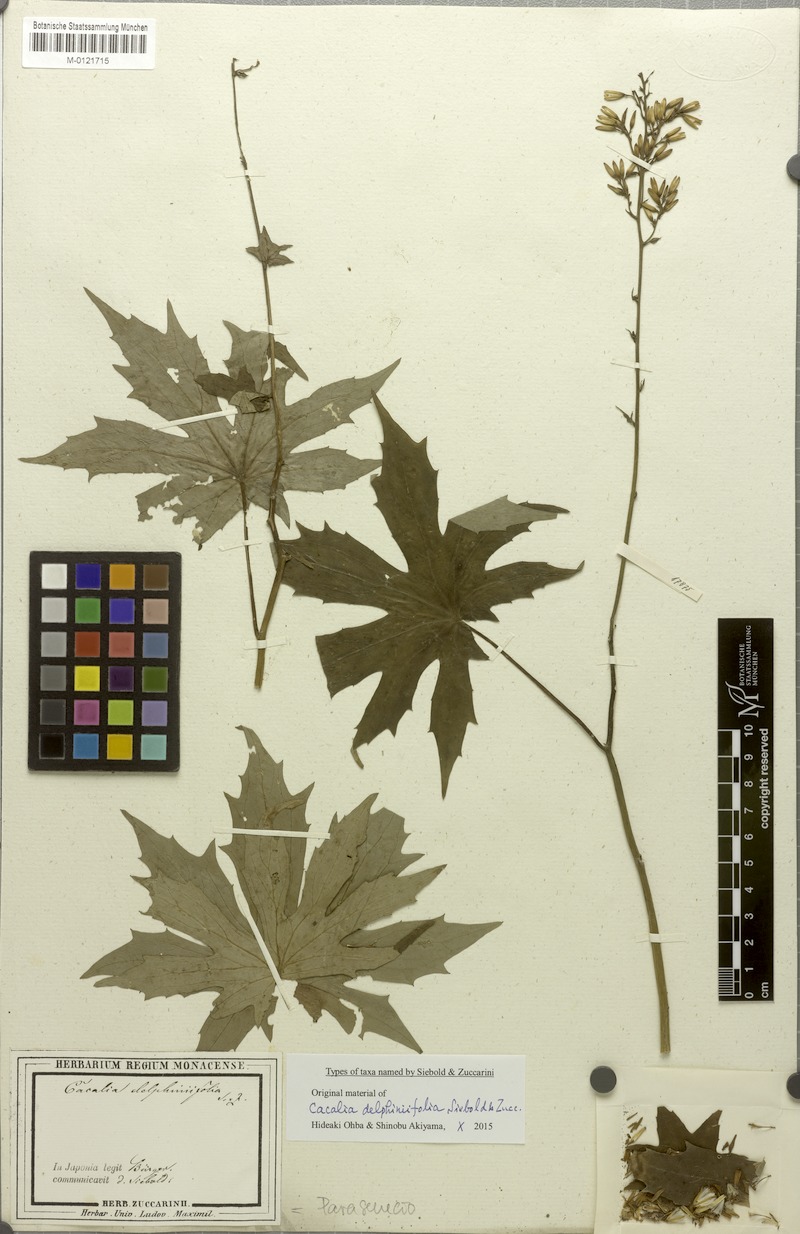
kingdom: Plantae
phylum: Tracheophyta
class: Magnoliopsida
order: Asterales
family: Asteraceae
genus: Japonicalia
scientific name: Japonicalia delphiniifolia
